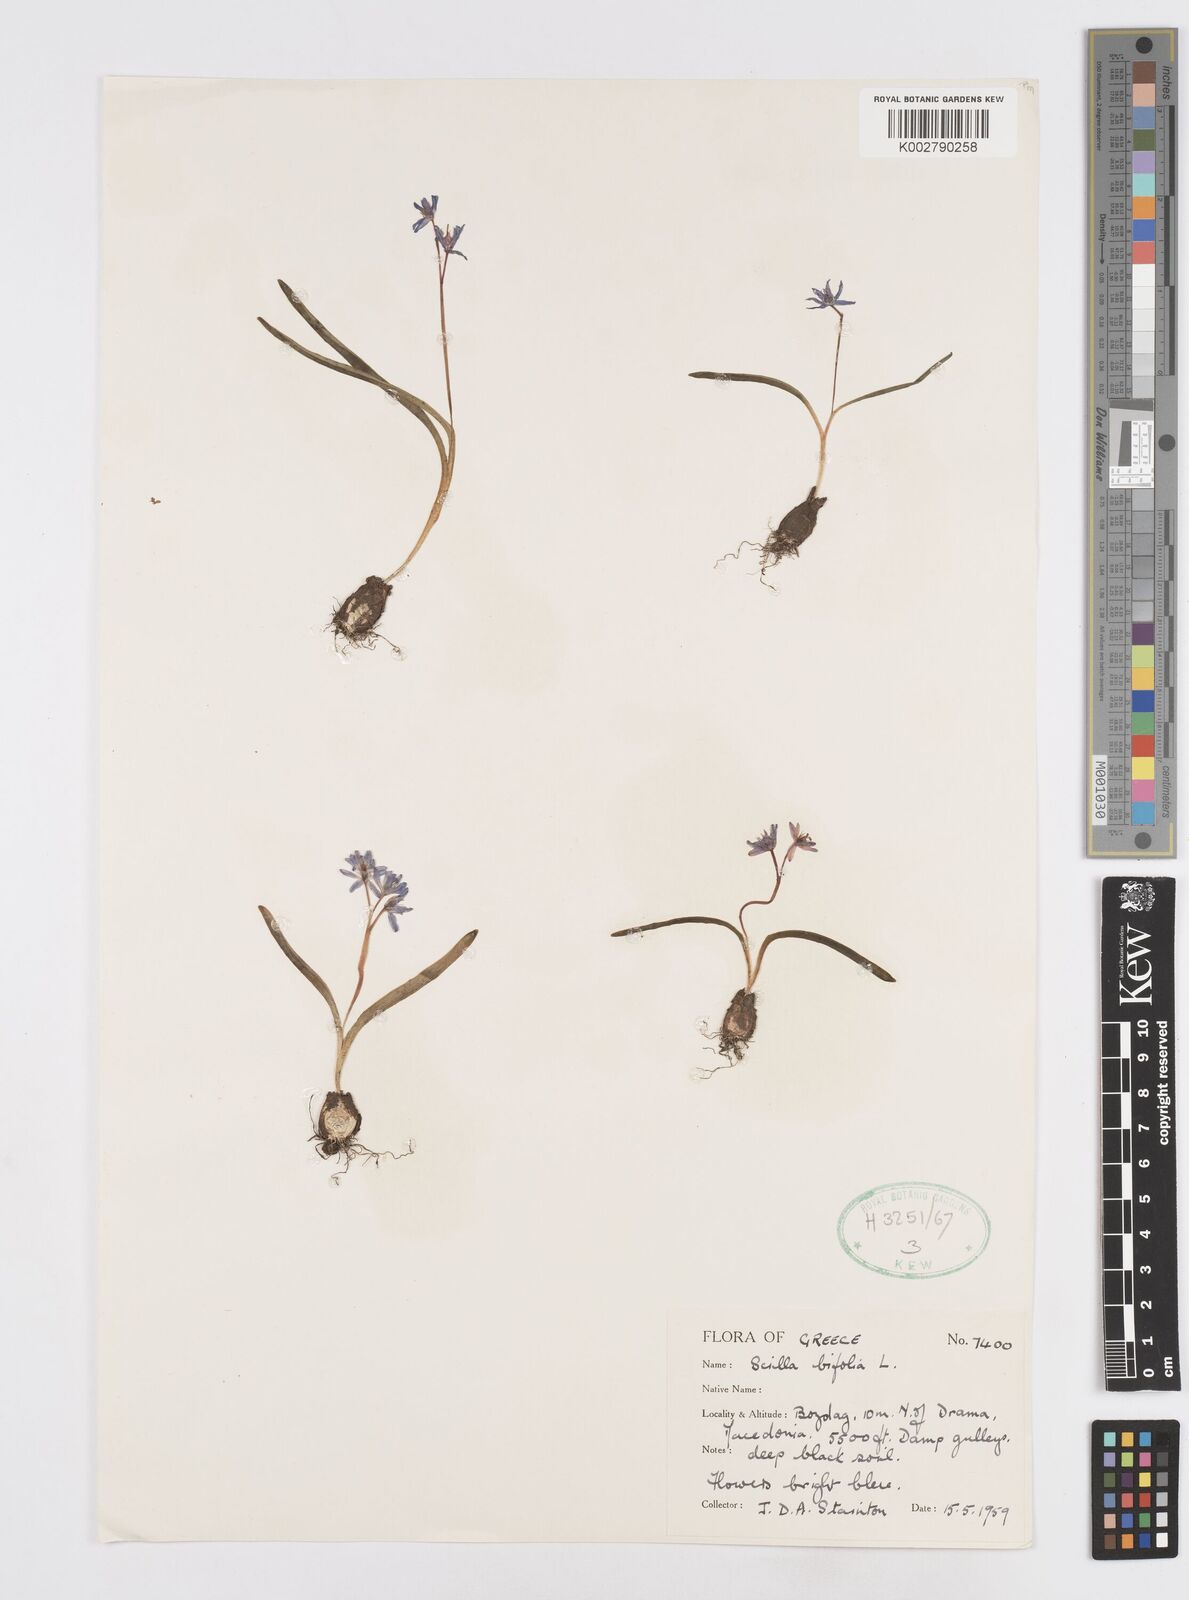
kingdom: Plantae
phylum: Tracheophyta
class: Liliopsida
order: Asparagales
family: Asparagaceae
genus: Scilla
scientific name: Scilla bifolia
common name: Alpine squill
